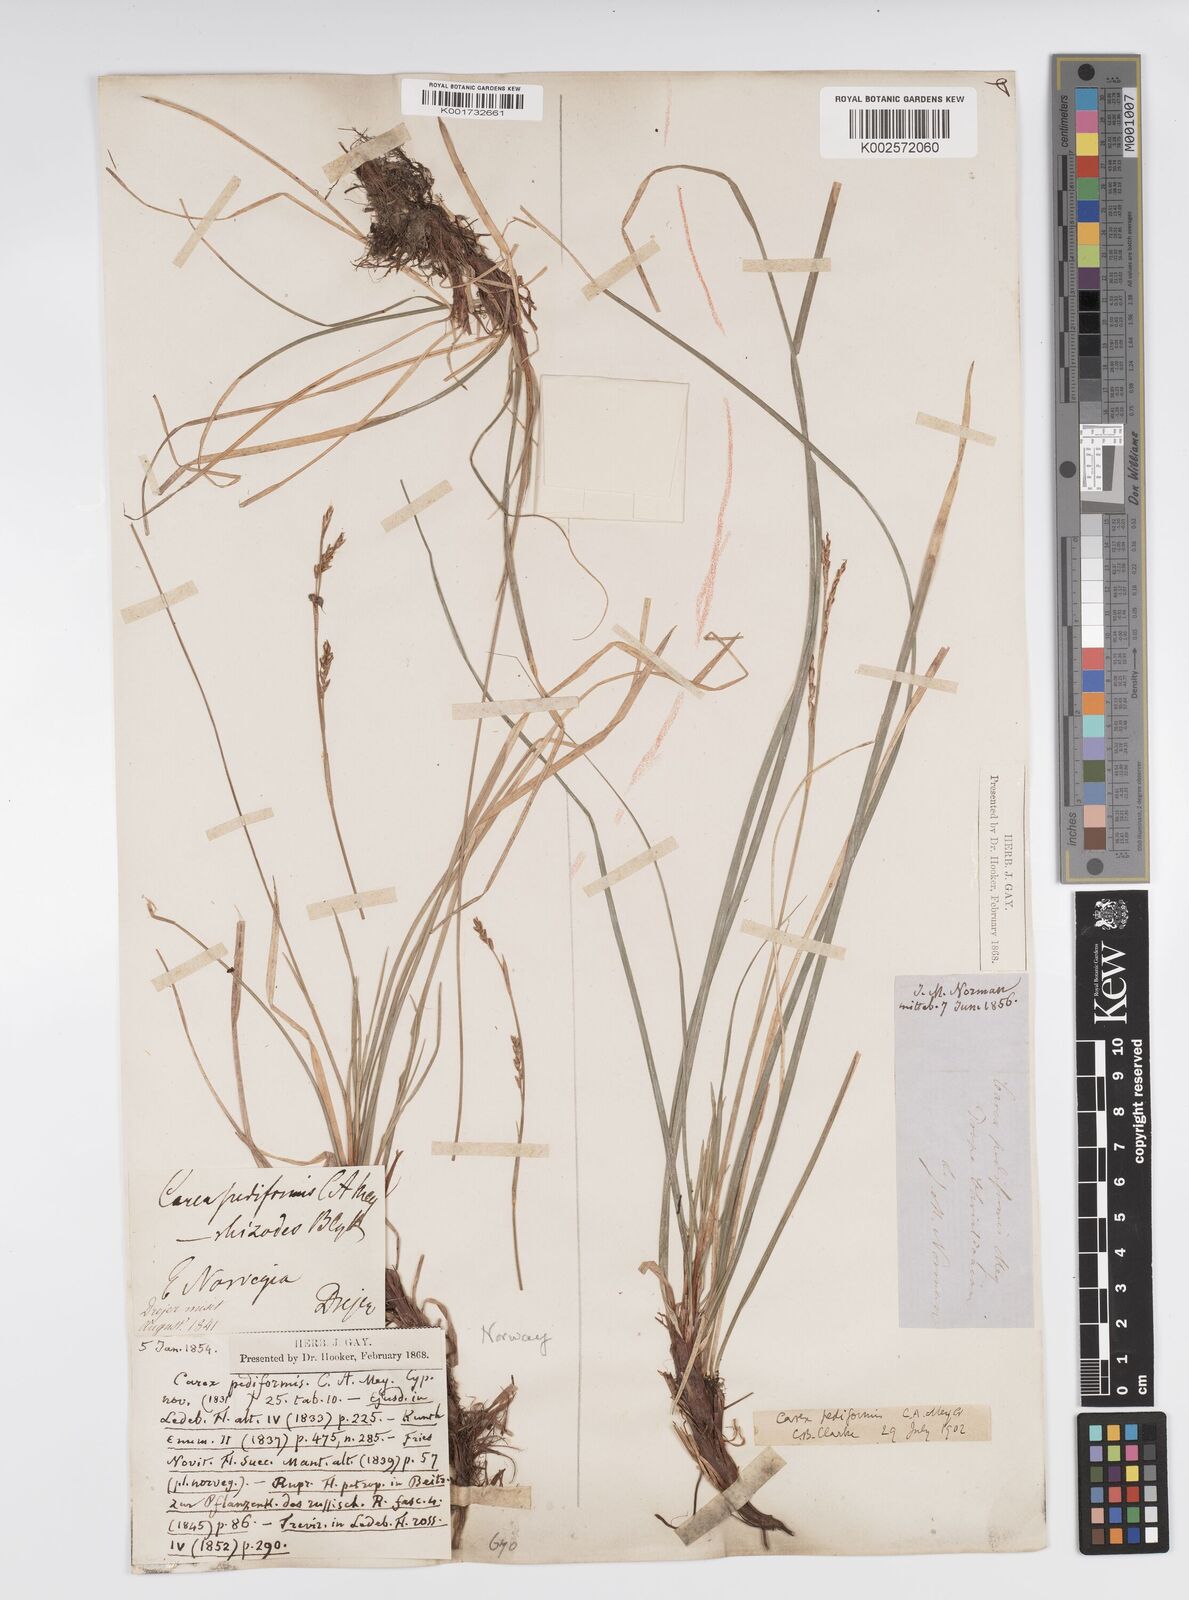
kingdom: Plantae
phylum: Tracheophyta
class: Liliopsida
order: Poales
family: Cyperaceae
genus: Carex
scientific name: Carex pediformis
